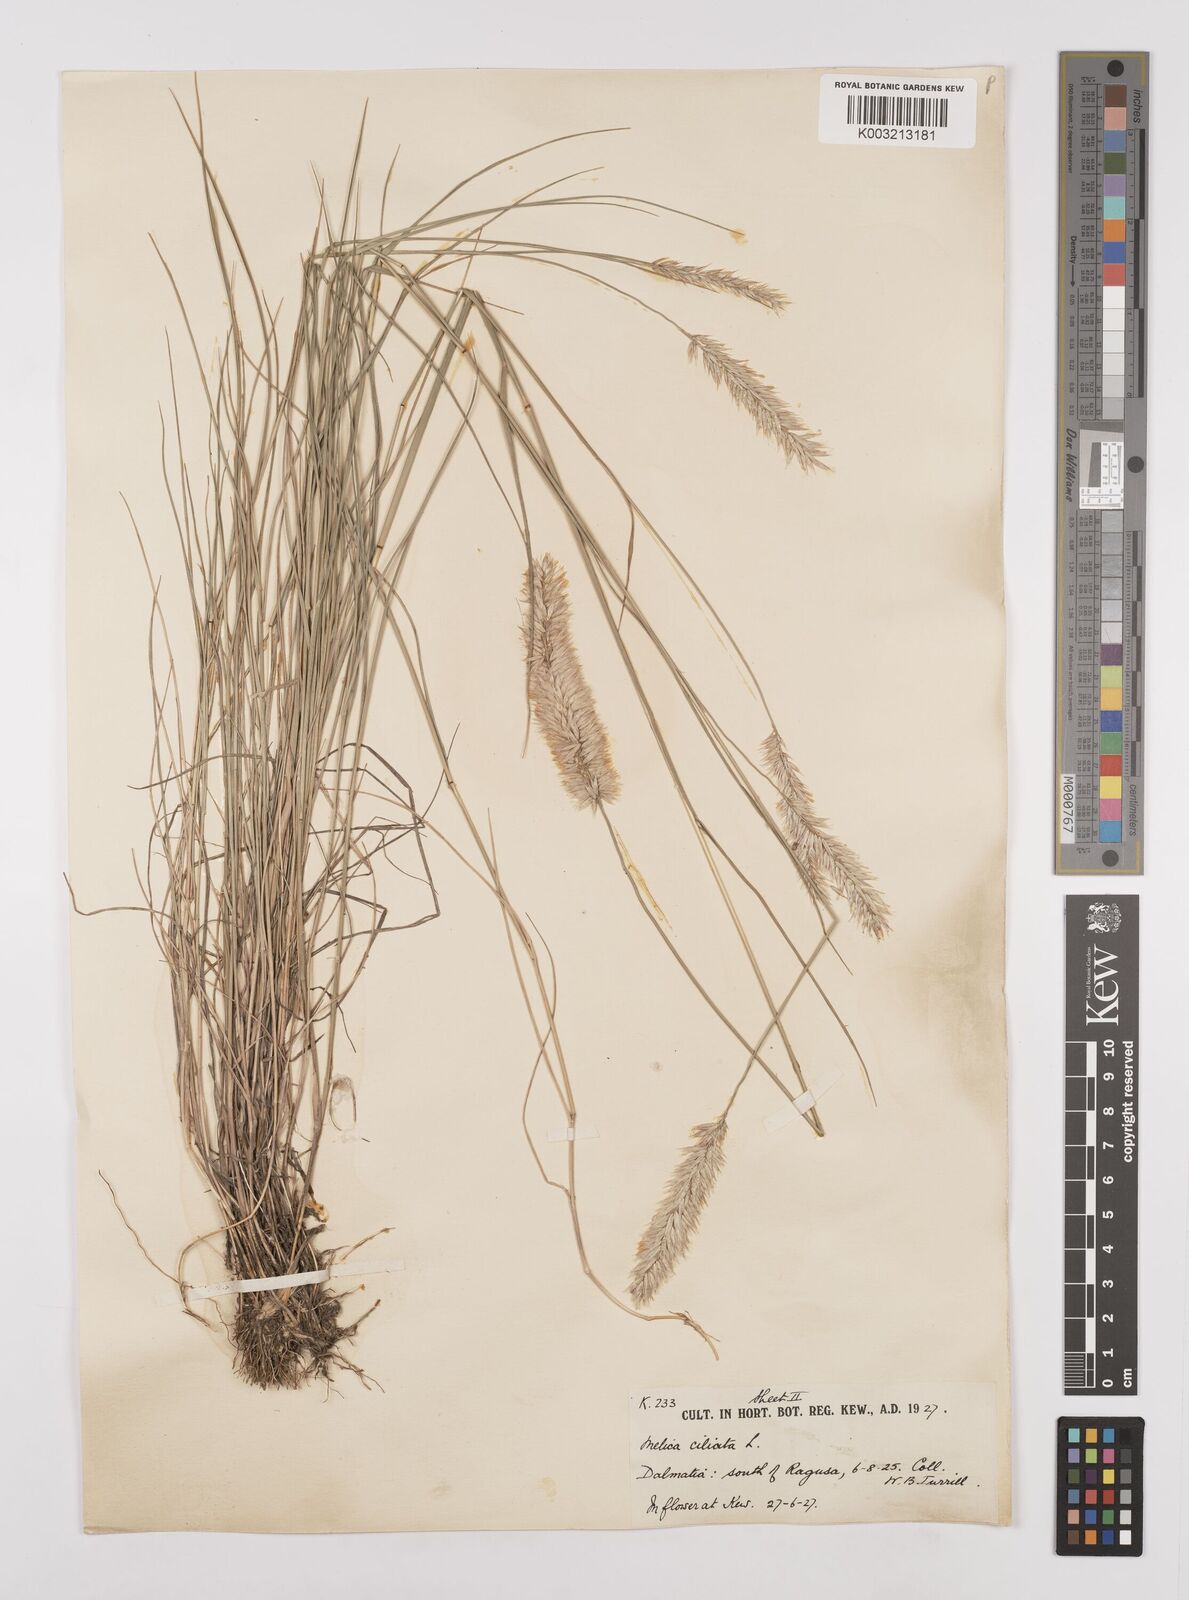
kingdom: Plantae
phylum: Tracheophyta
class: Liliopsida
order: Poales
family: Poaceae
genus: Melica
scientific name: Melica ciliata
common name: Hairy melicgrass
